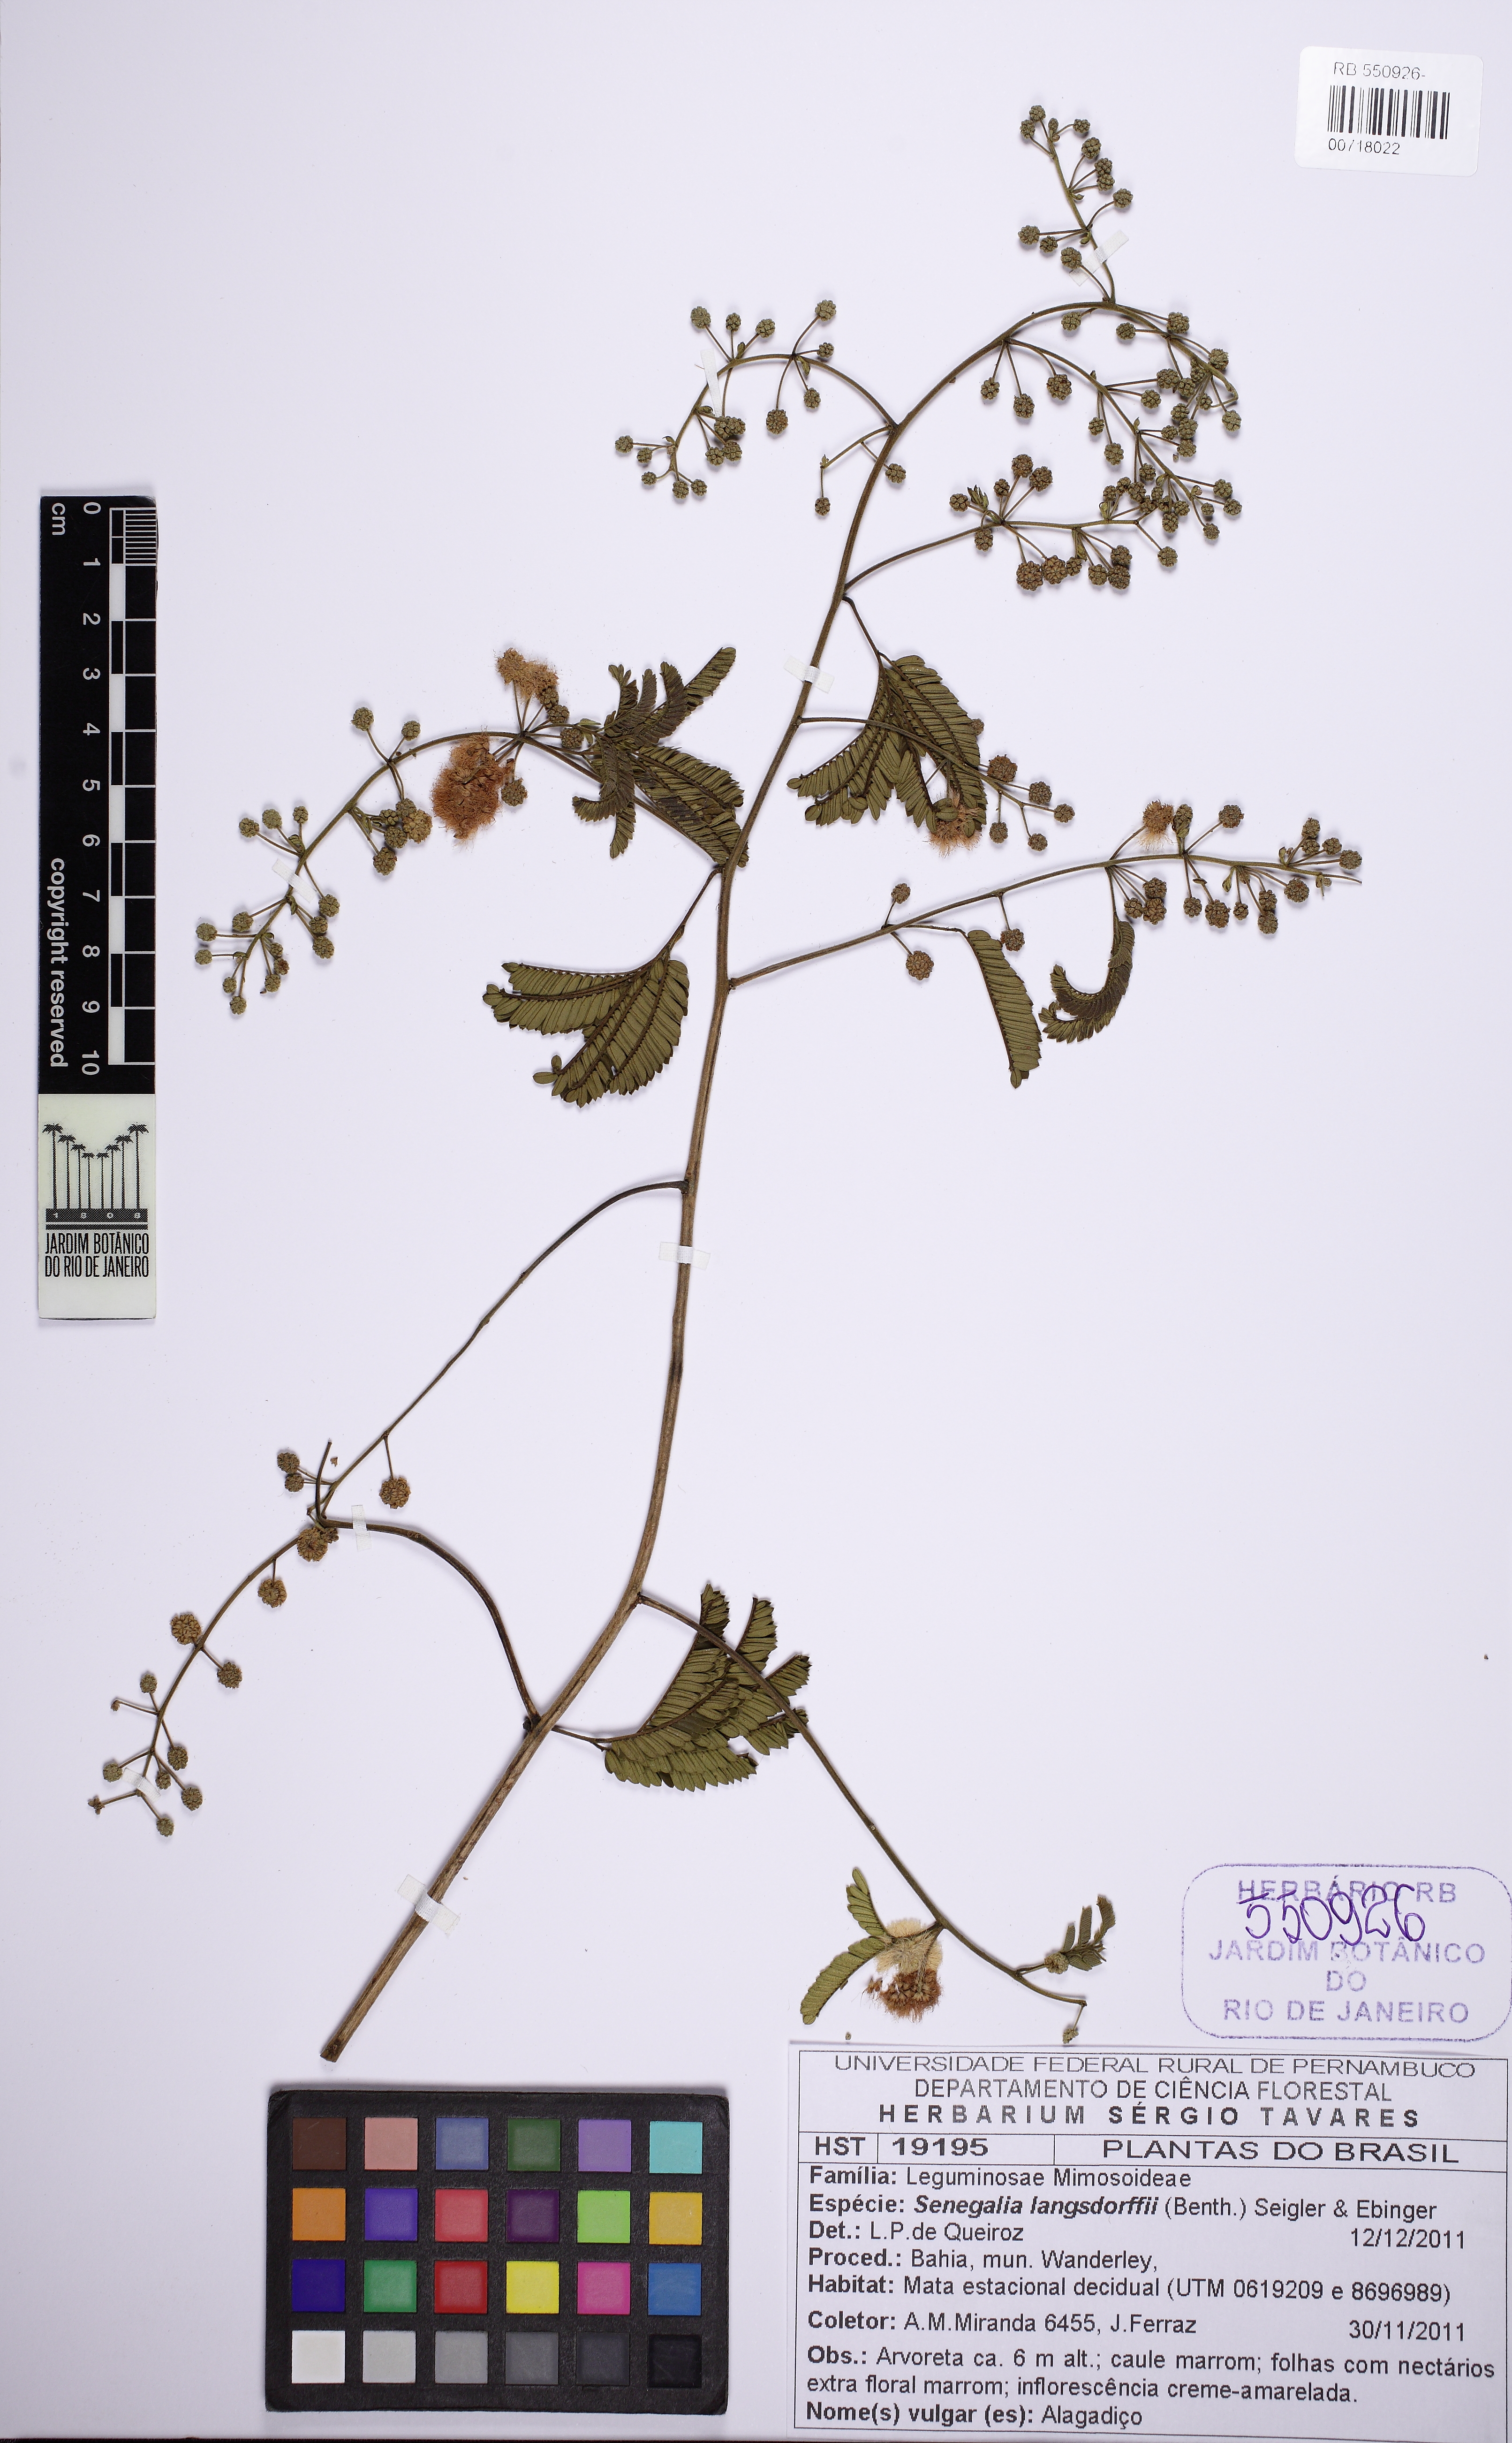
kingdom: Plantae
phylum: Tracheophyta
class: Magnoliopsida
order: Fabales
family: Fabaceae
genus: Senegalia
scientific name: Senegalia langsdorffii
